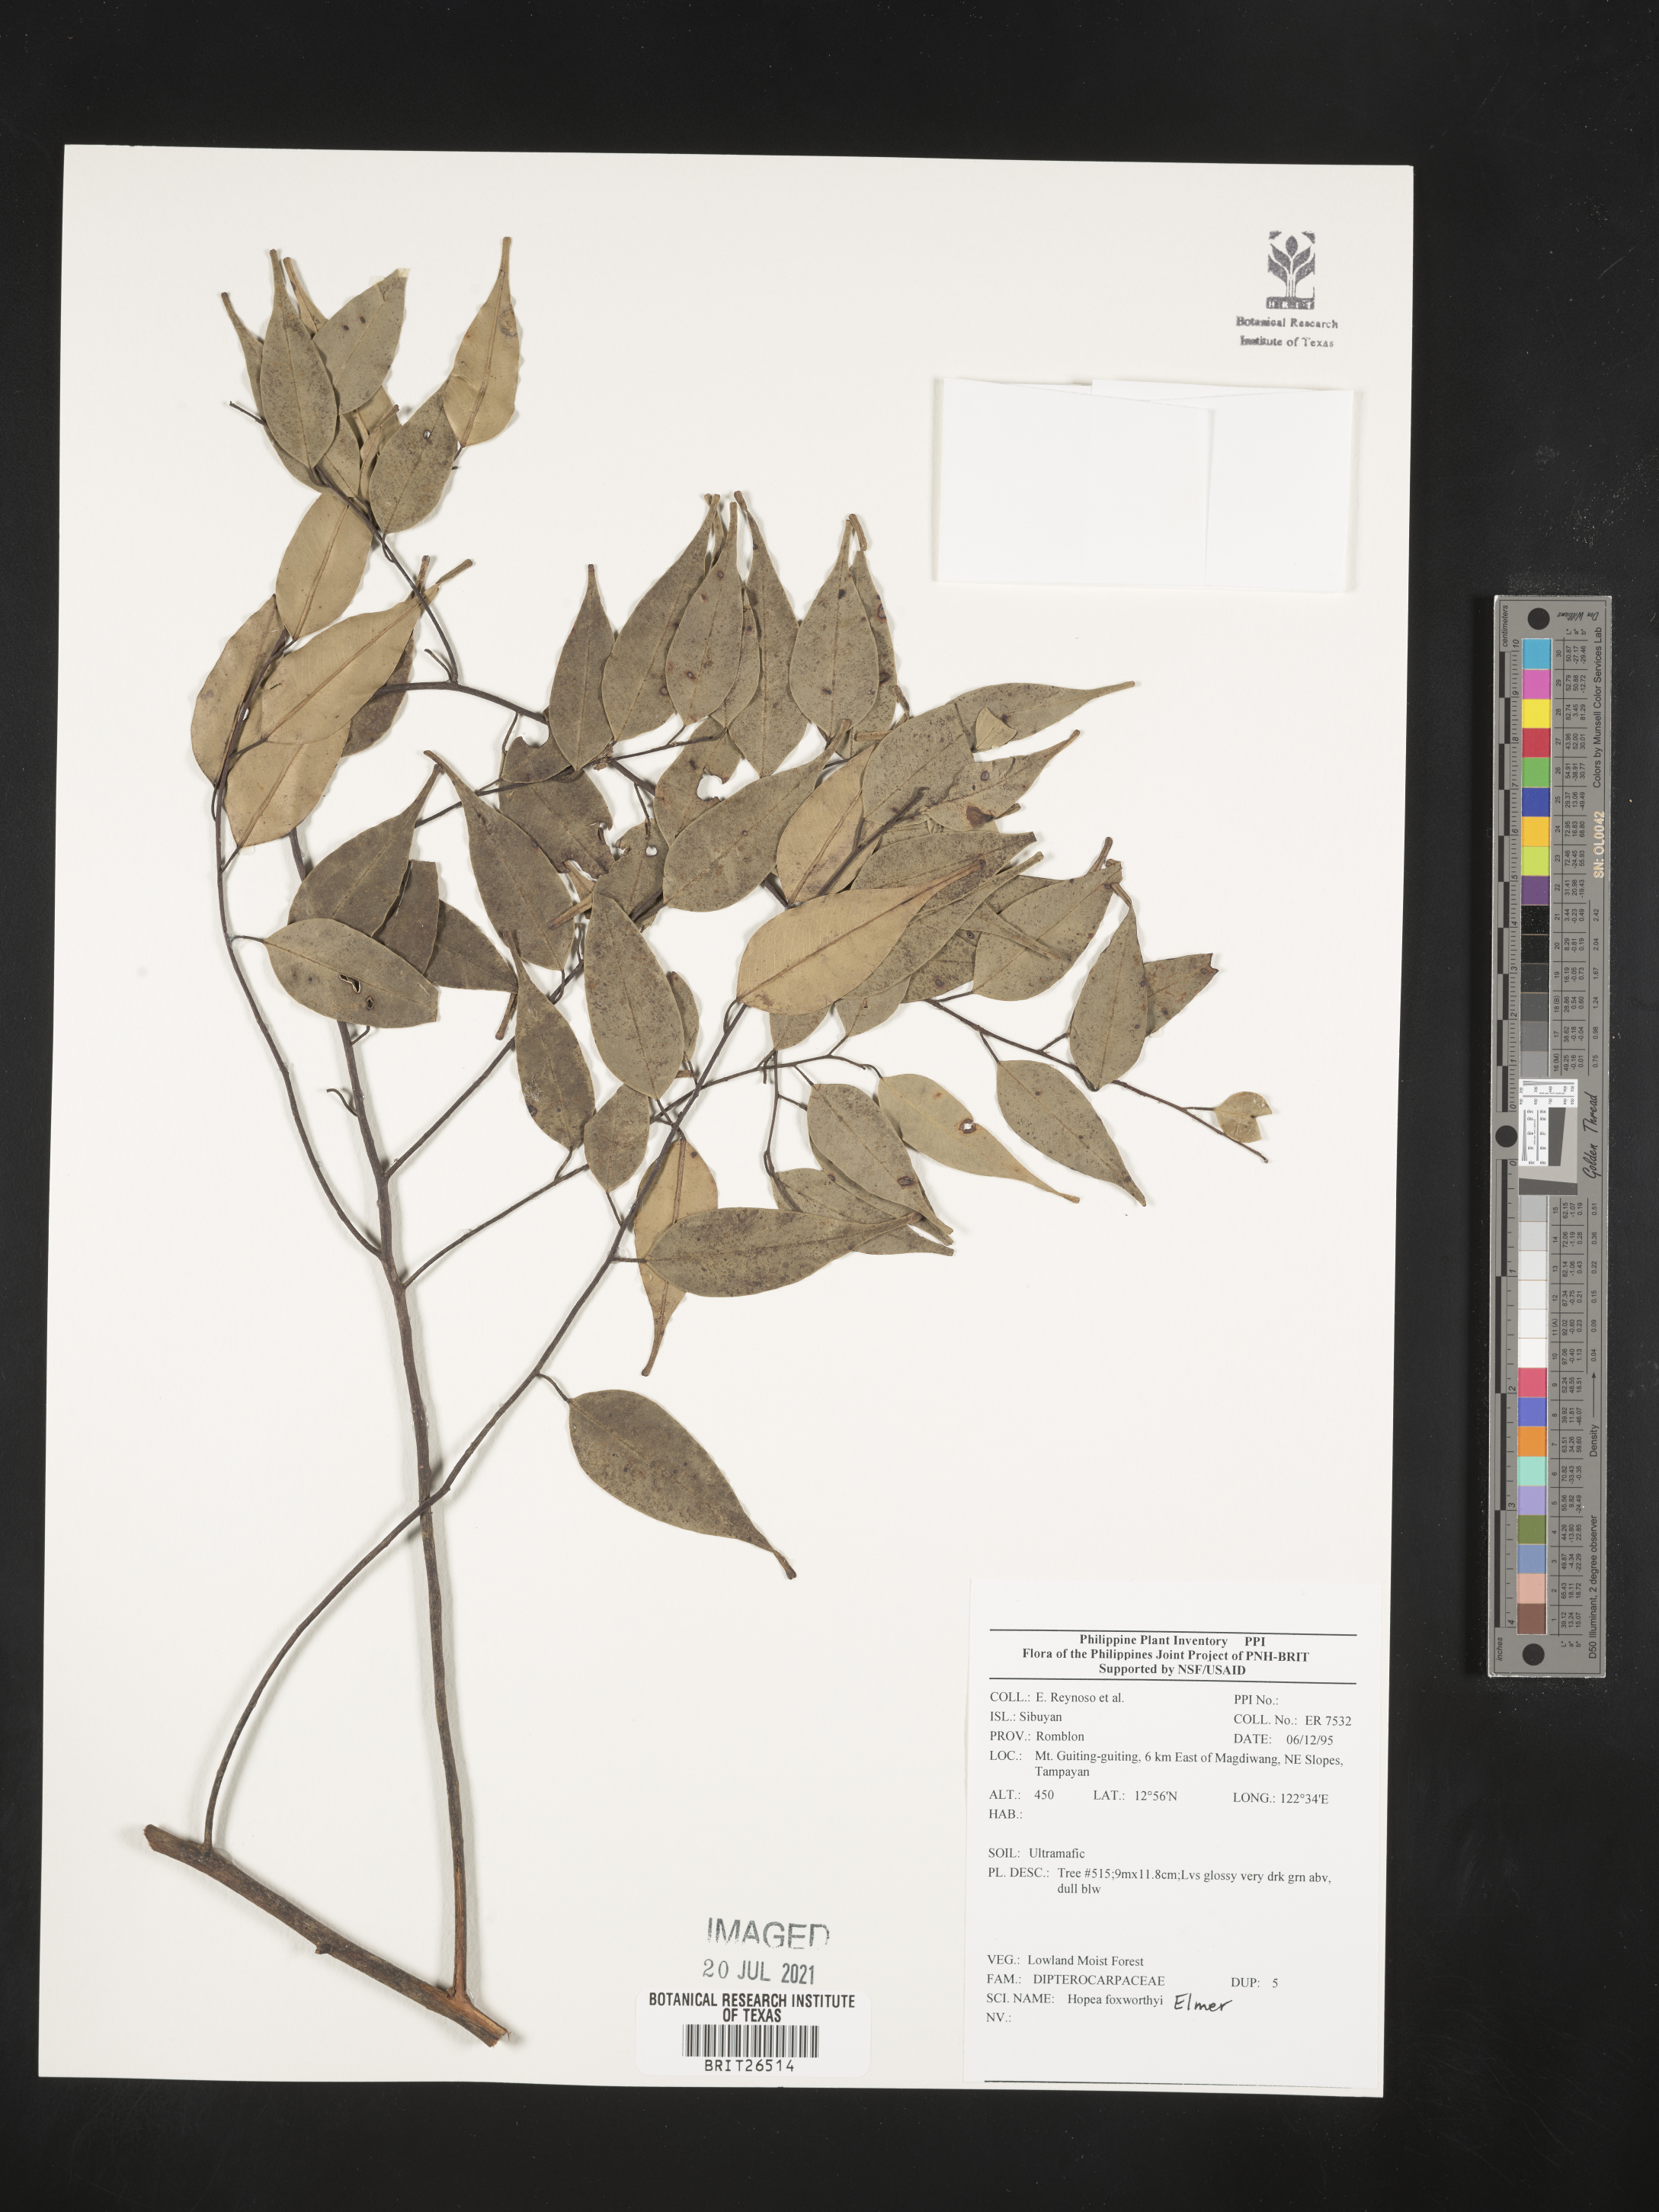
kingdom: Plantae
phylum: Tracheophyta
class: Magnoliopsida
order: Malvales
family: Dipterocarpaceae
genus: Hopea
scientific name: Hopea foxworthyi
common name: Dalingdingan
